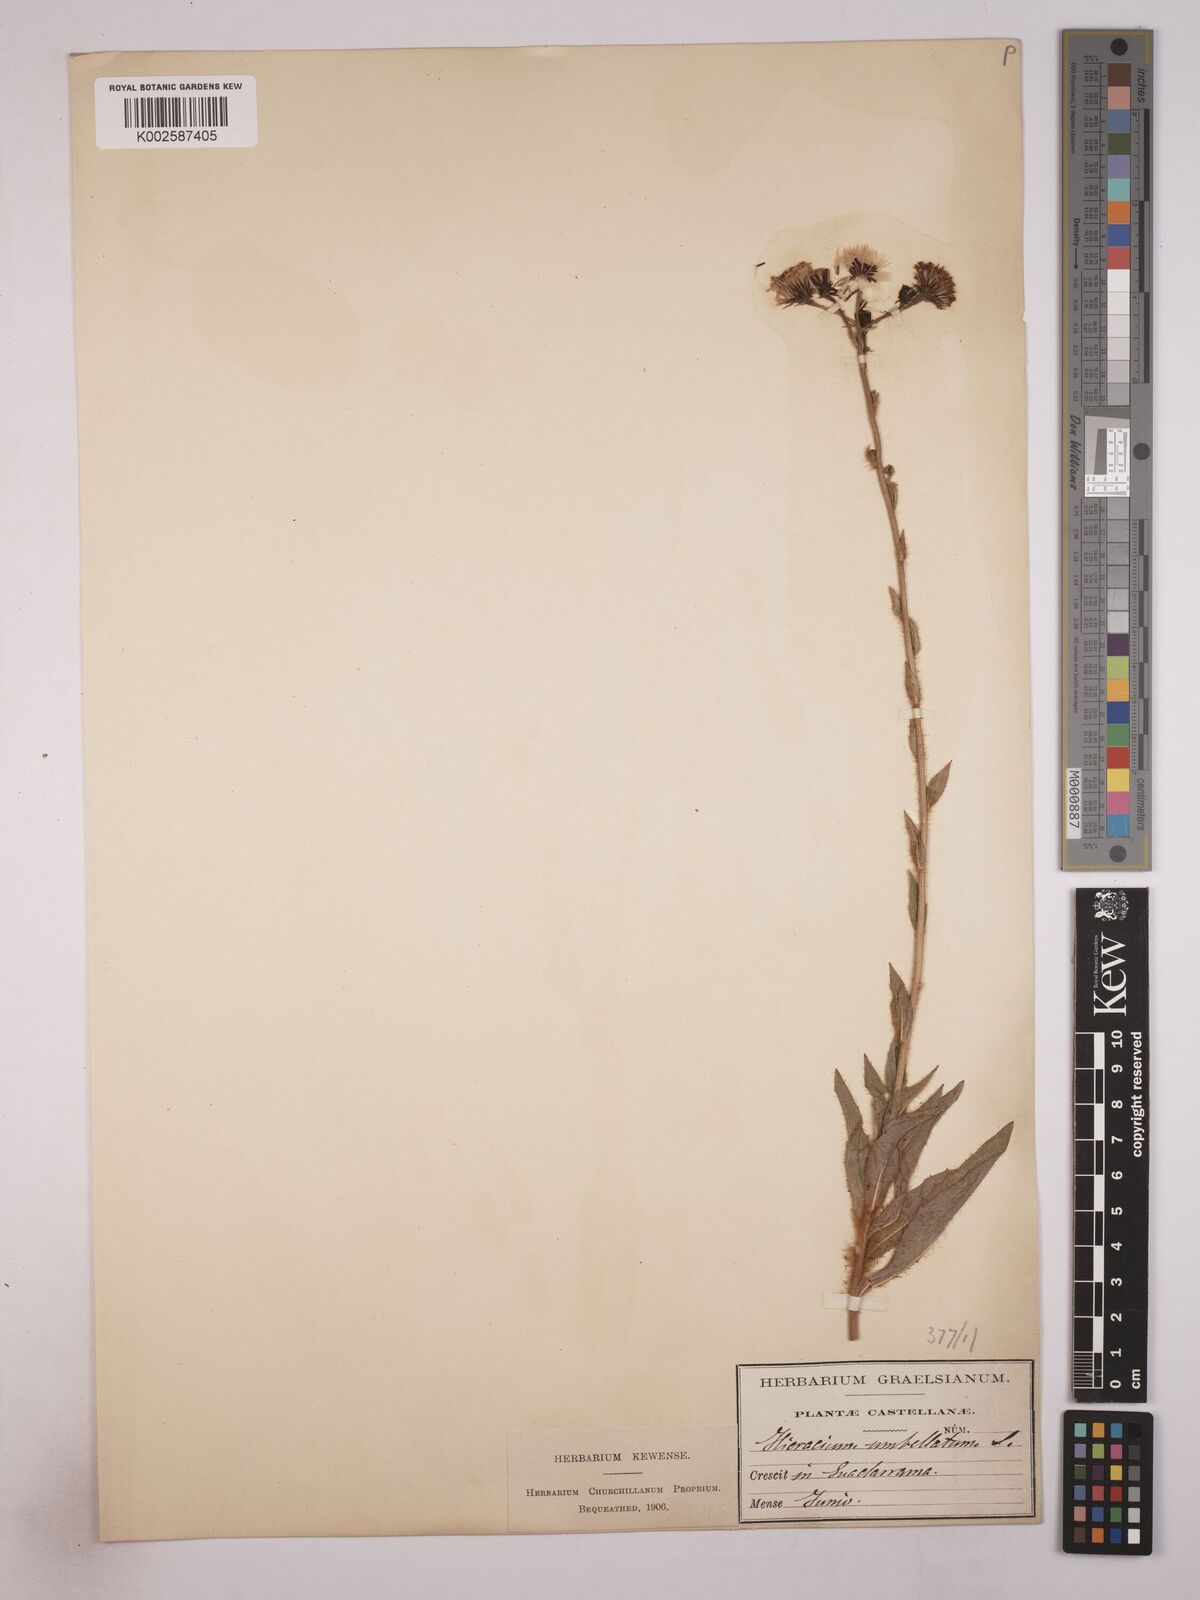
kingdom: Plantae
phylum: Tracheophyta
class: Magnoliopsida
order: Asterales
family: Asteraceae
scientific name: Asteraceae
